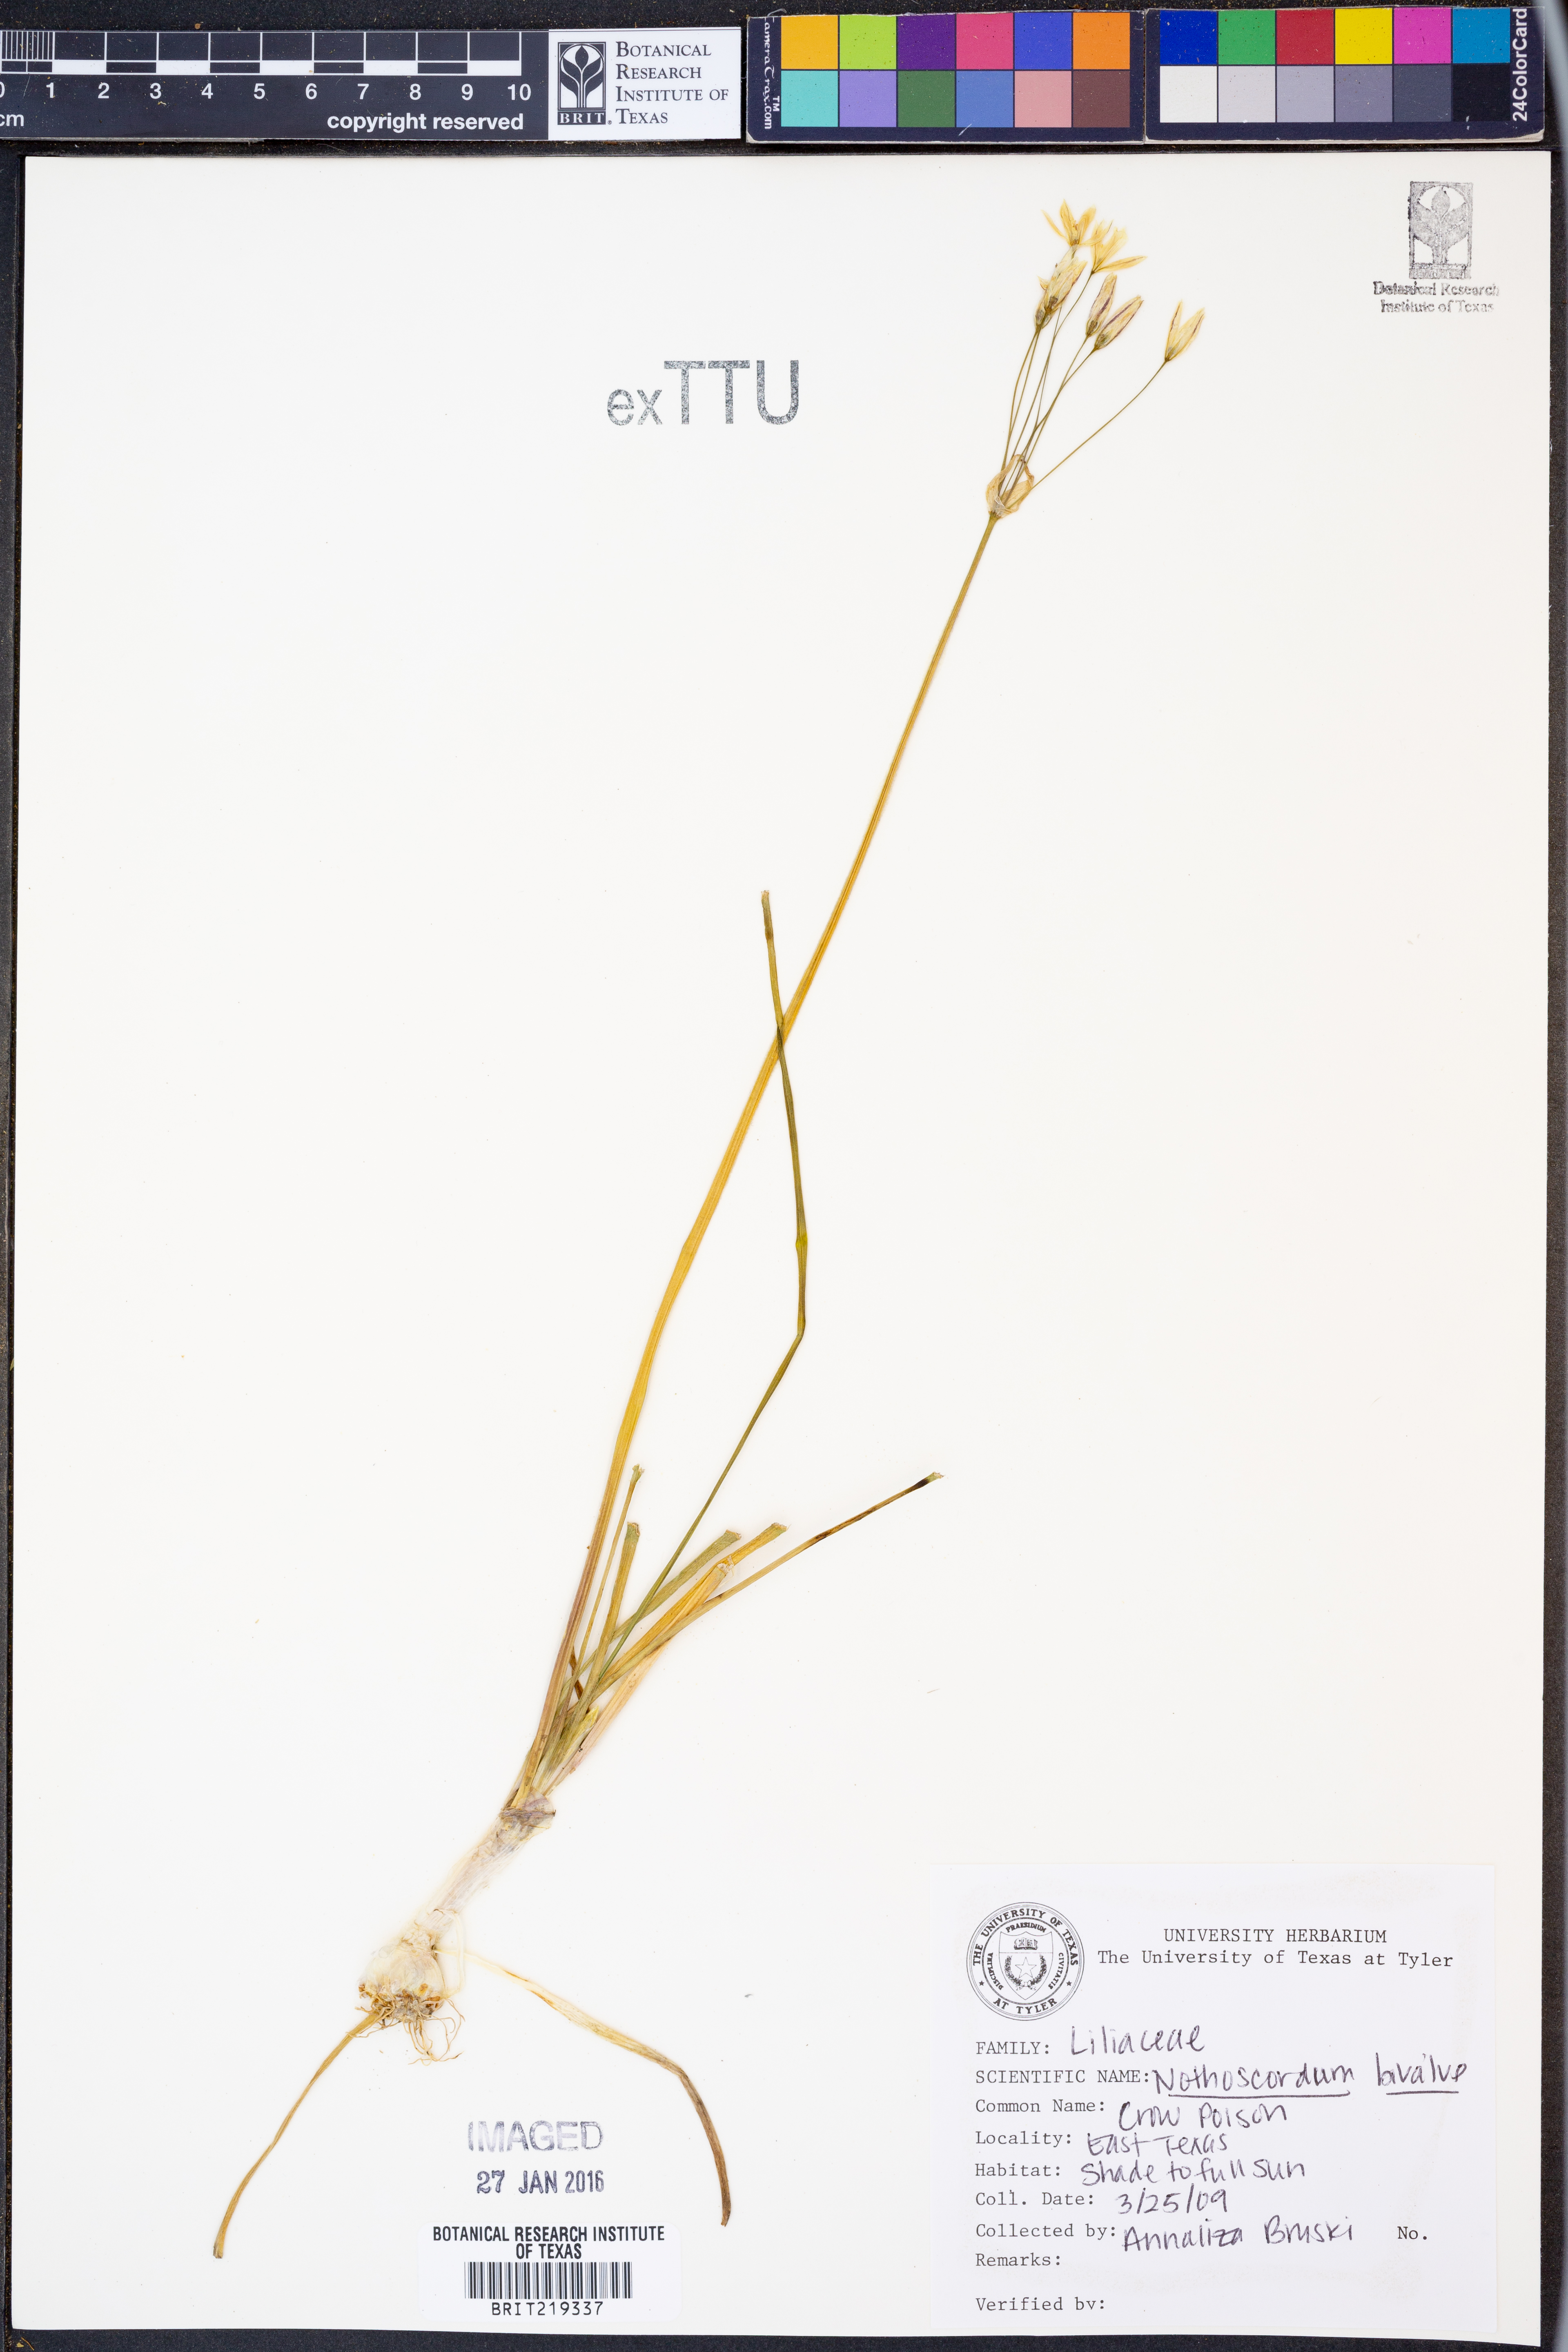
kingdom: Plantae
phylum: Tracheophyta
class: Liliopsida
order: Asparagales
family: Amaryllidaceae
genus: Nothoscordum
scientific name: Nothoscordum bivalve
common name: Crow-poison
